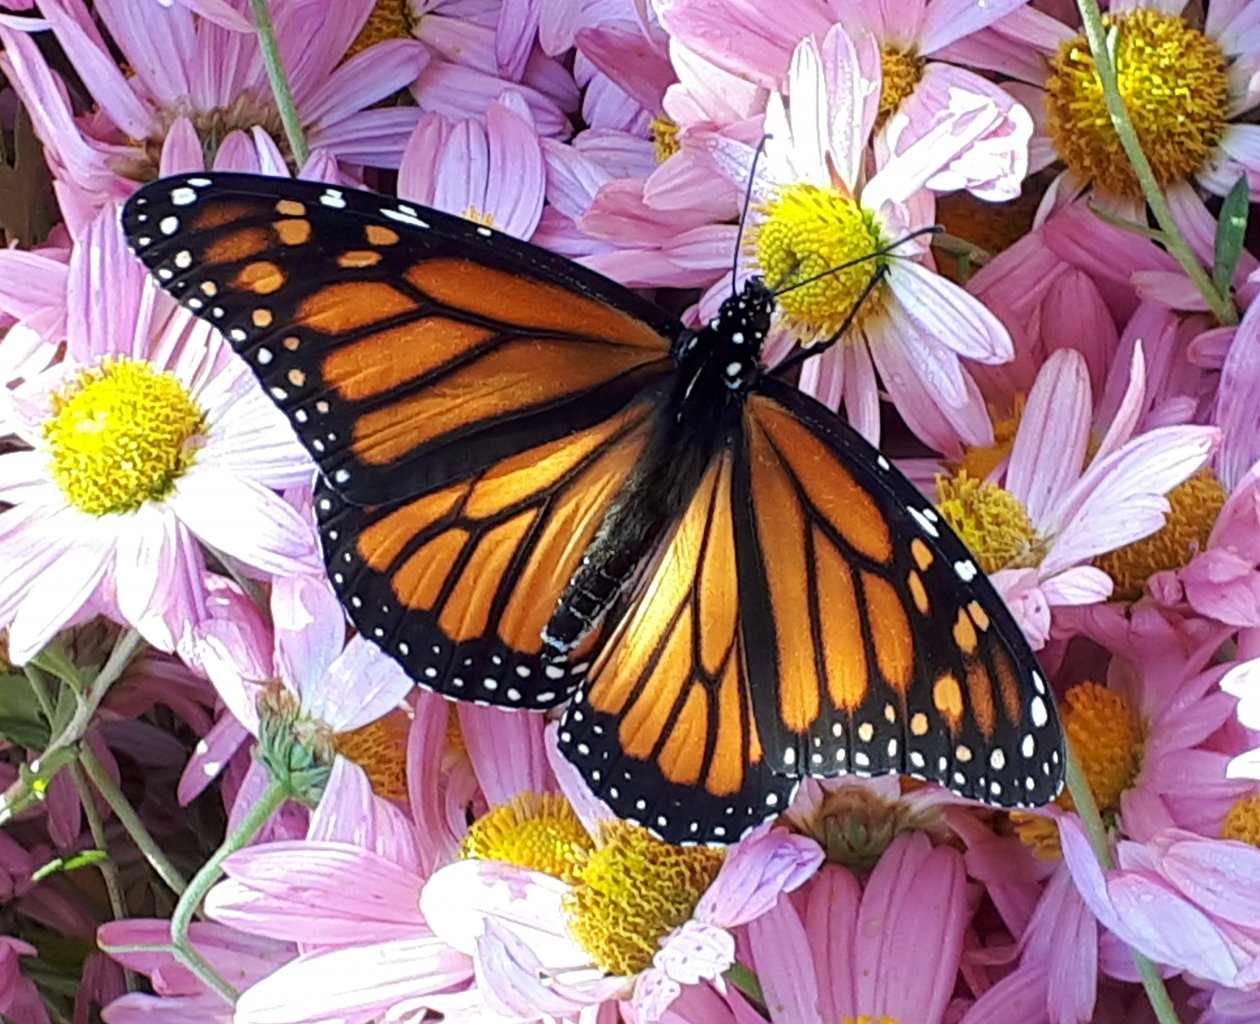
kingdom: Animalia
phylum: Arthropoda
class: Insecta
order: Lepidoptera
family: Nymphalidae
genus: Danaus
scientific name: Danaus plexippus
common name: Monarch
